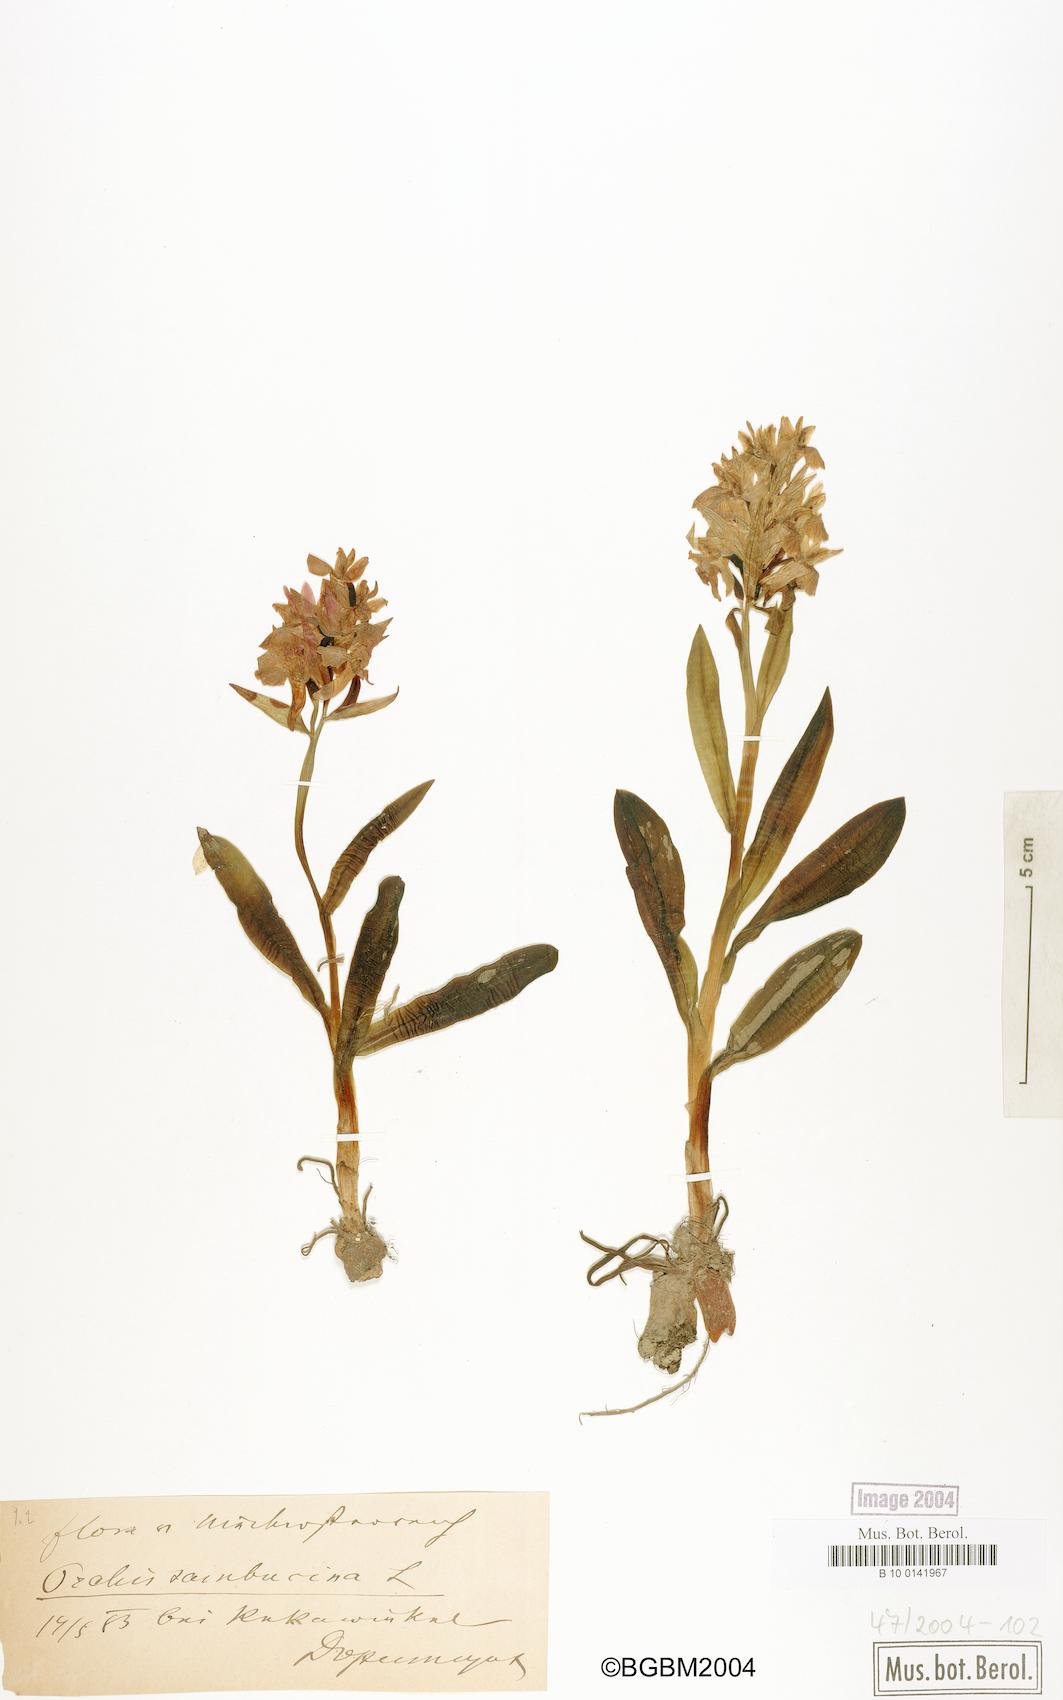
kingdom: Plantae
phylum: Tracheophyta
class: Liliopsida
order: Asparagales
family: Orchidaceae
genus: Dactylorhiza
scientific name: Dactylorhiza sambucina
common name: Elder-flowered orchid
